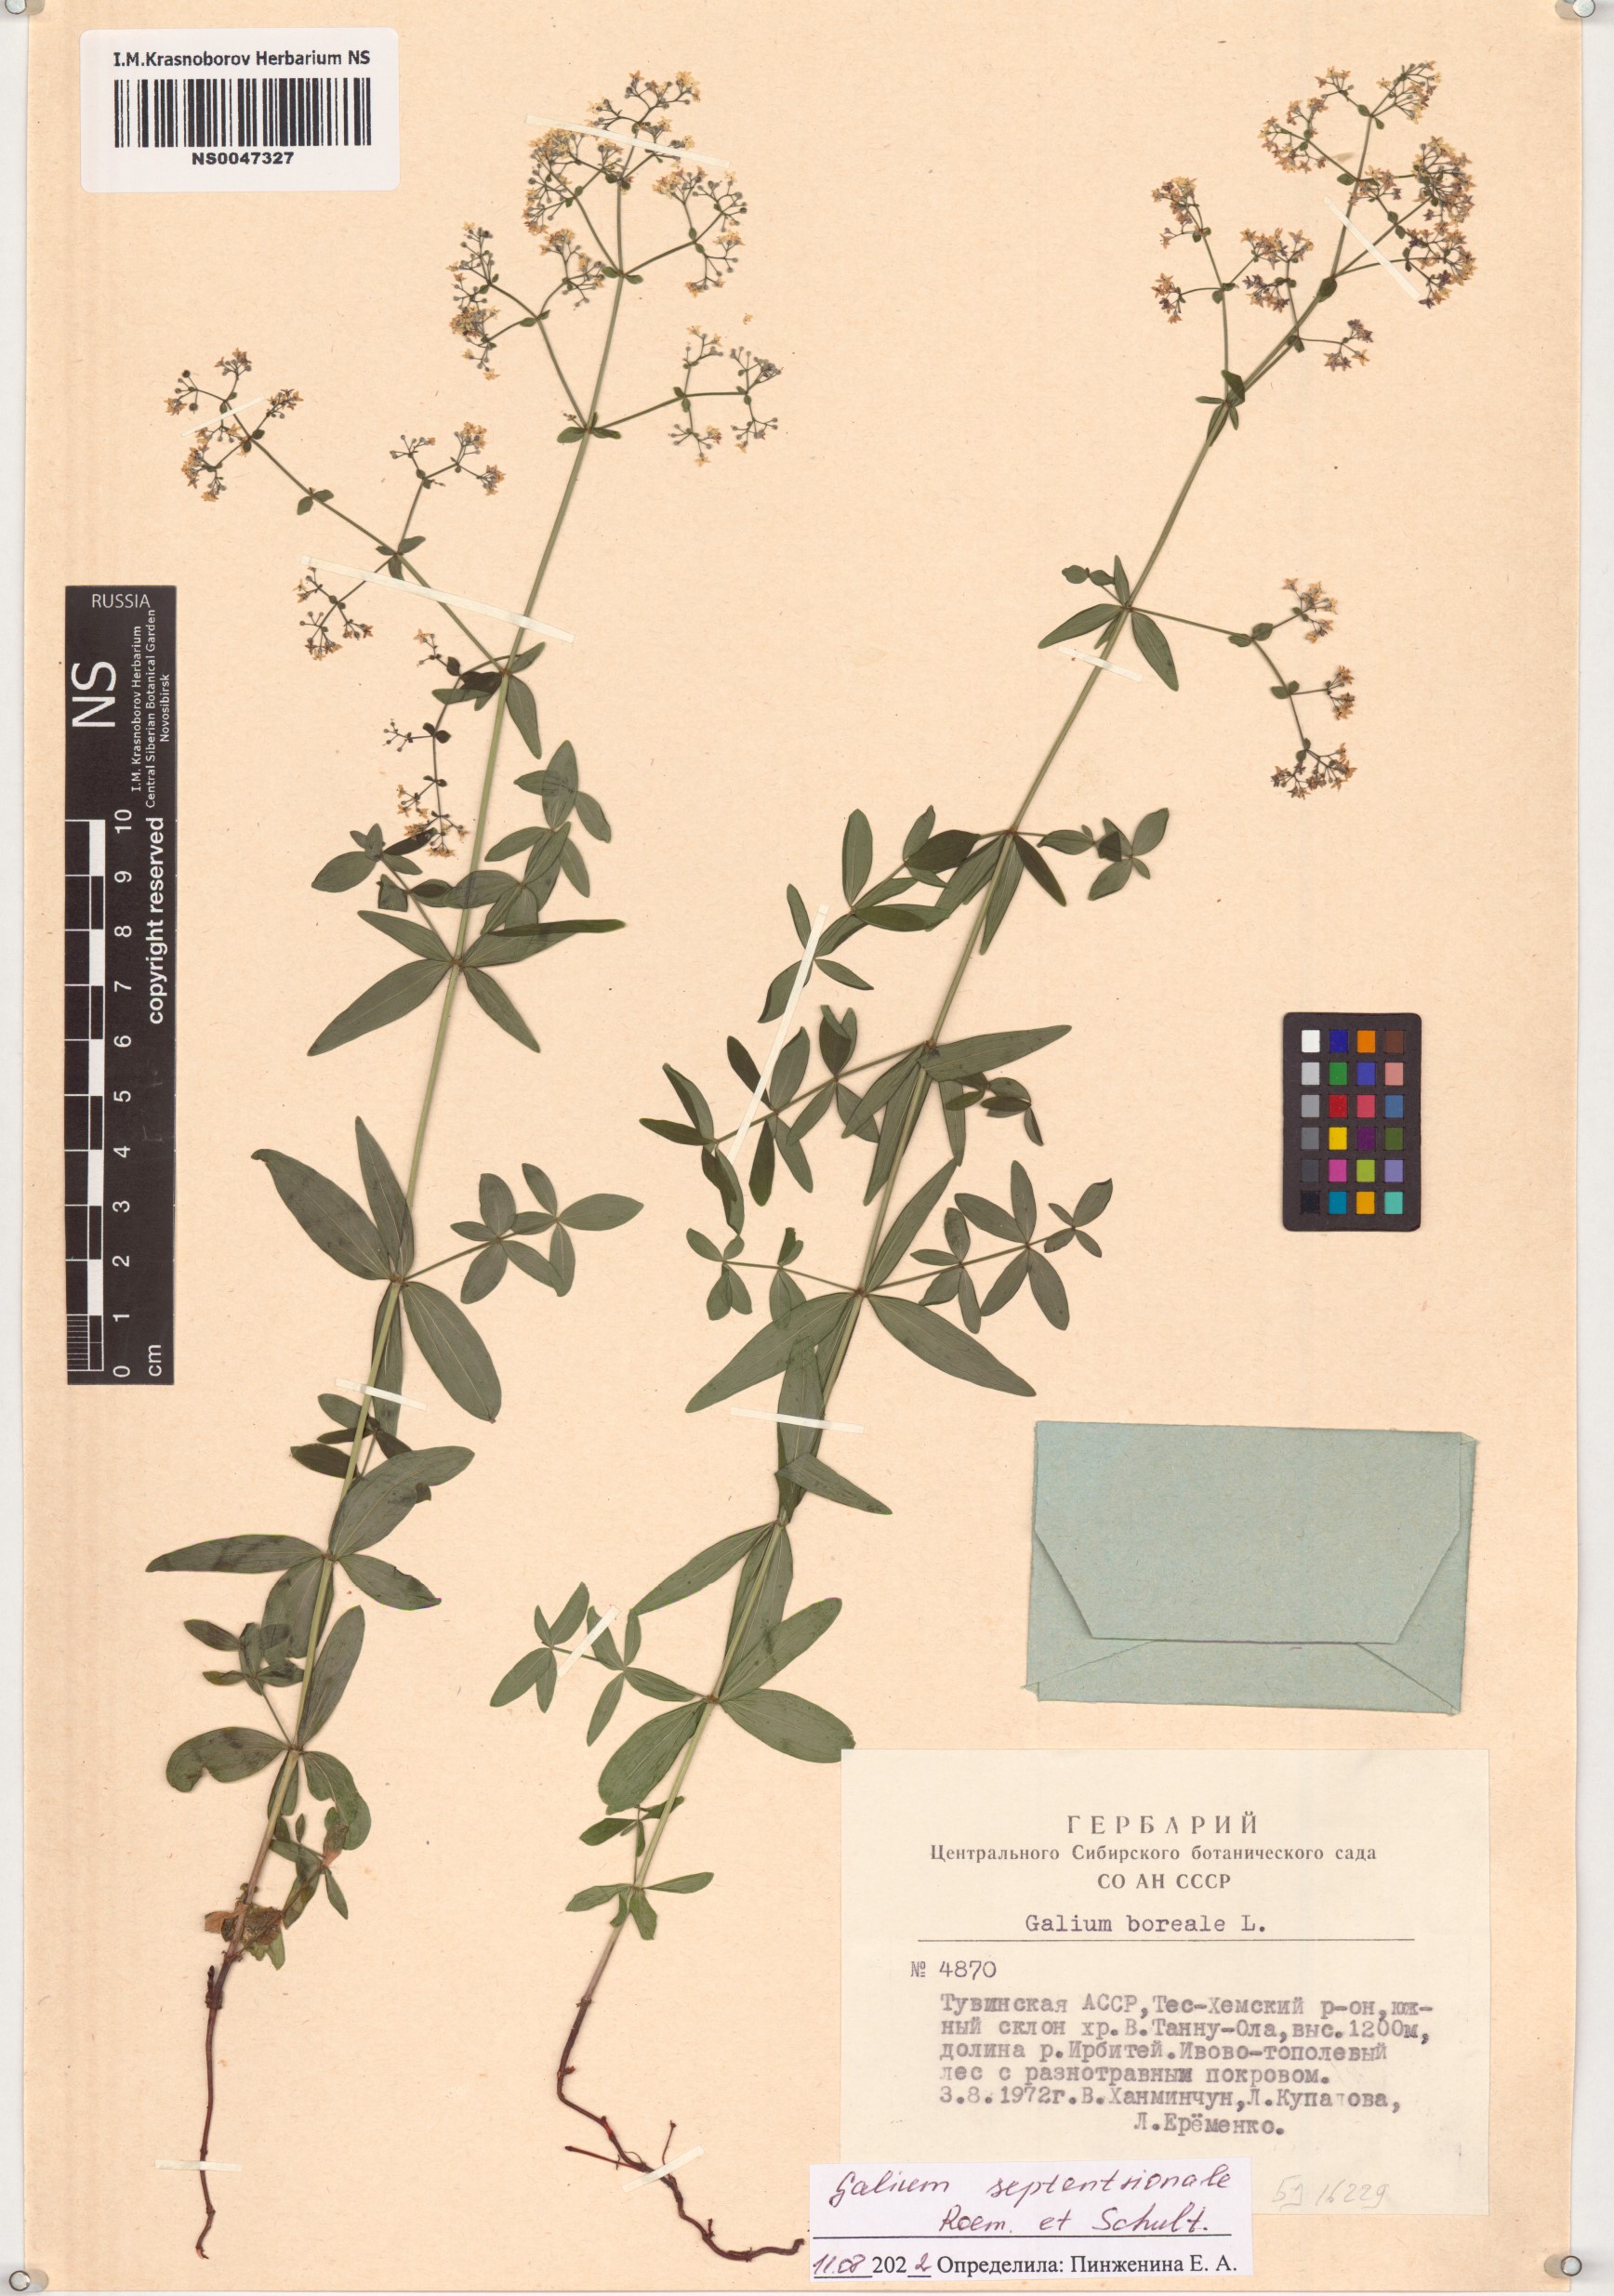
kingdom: Plantae
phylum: Tracheophyta
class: Magnoliopsida
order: Gentianales
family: Rubiaceae
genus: Galium
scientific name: Galium boreale
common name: Northern bedstraw
